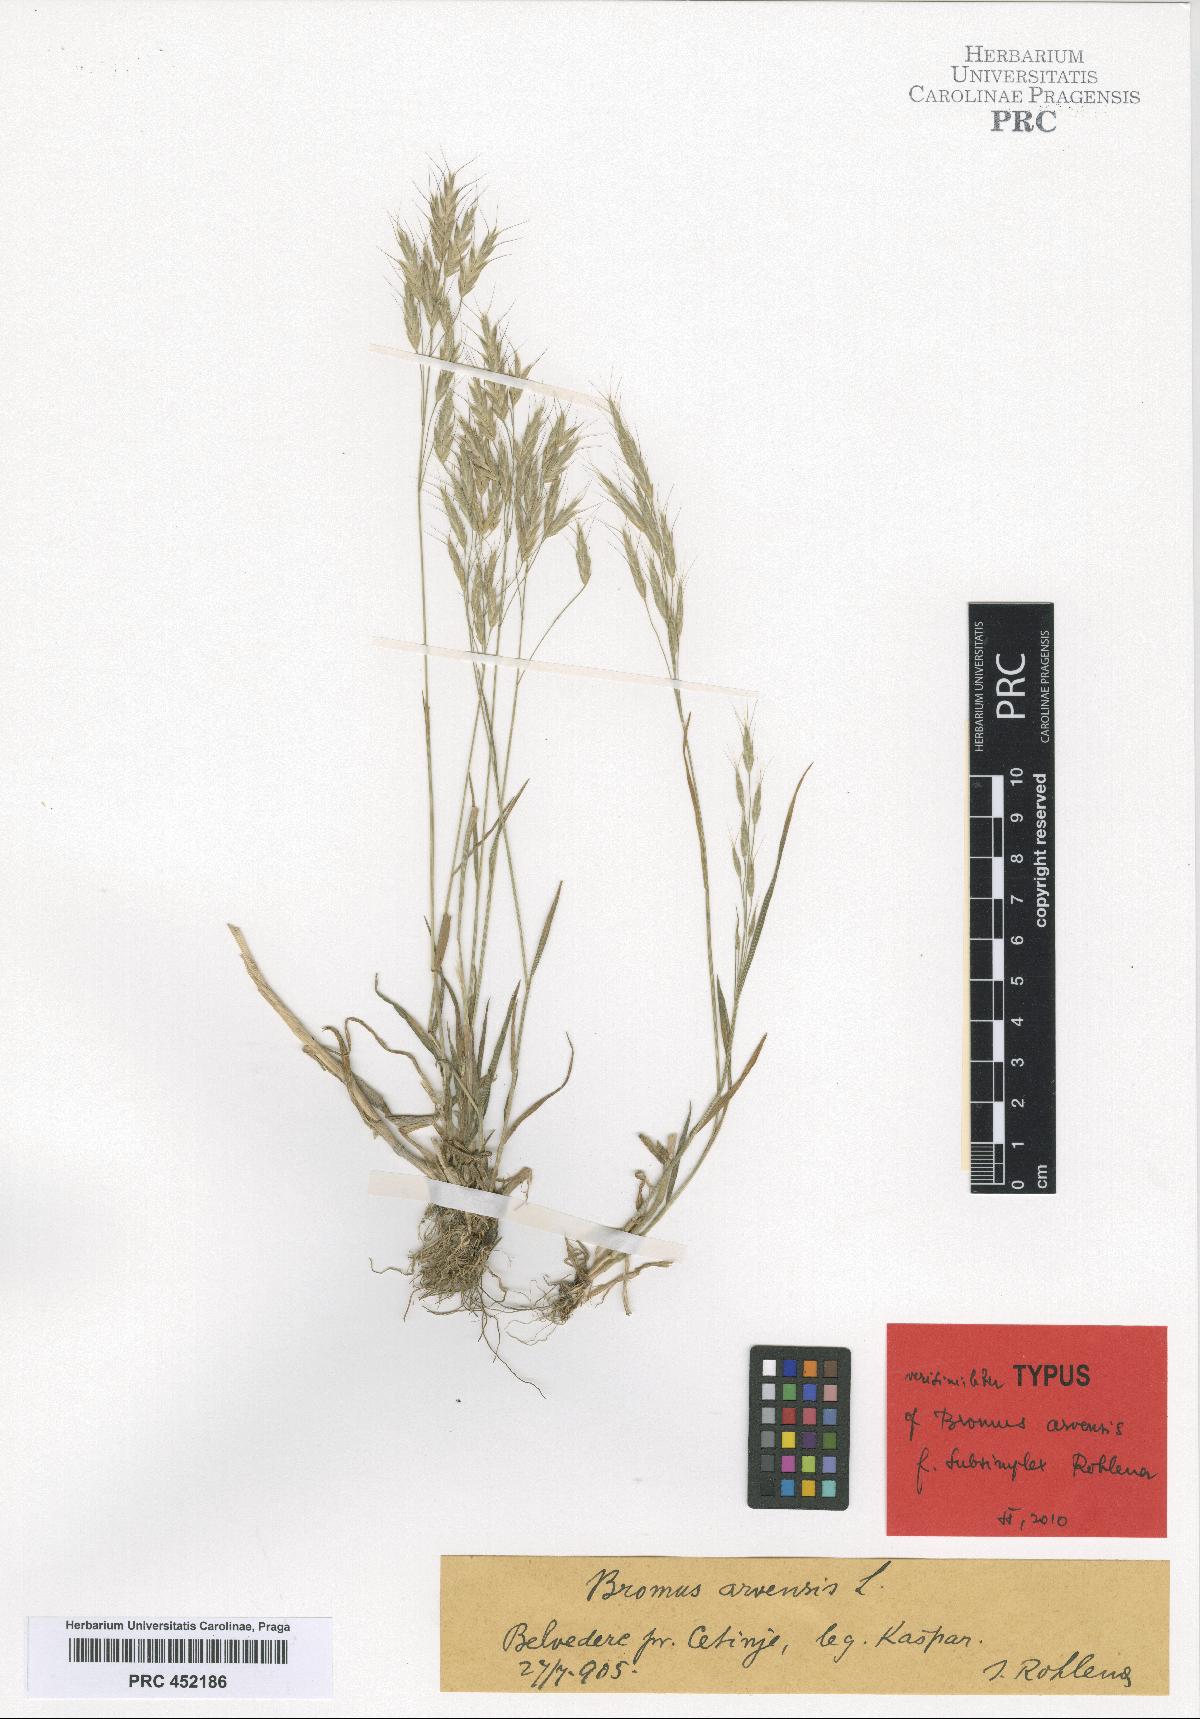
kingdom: Plantae
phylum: Tracheophyta
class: Liliopsida
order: Poales
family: Poaceae
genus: Bromus
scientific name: Bromus arvensis
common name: Field brome
